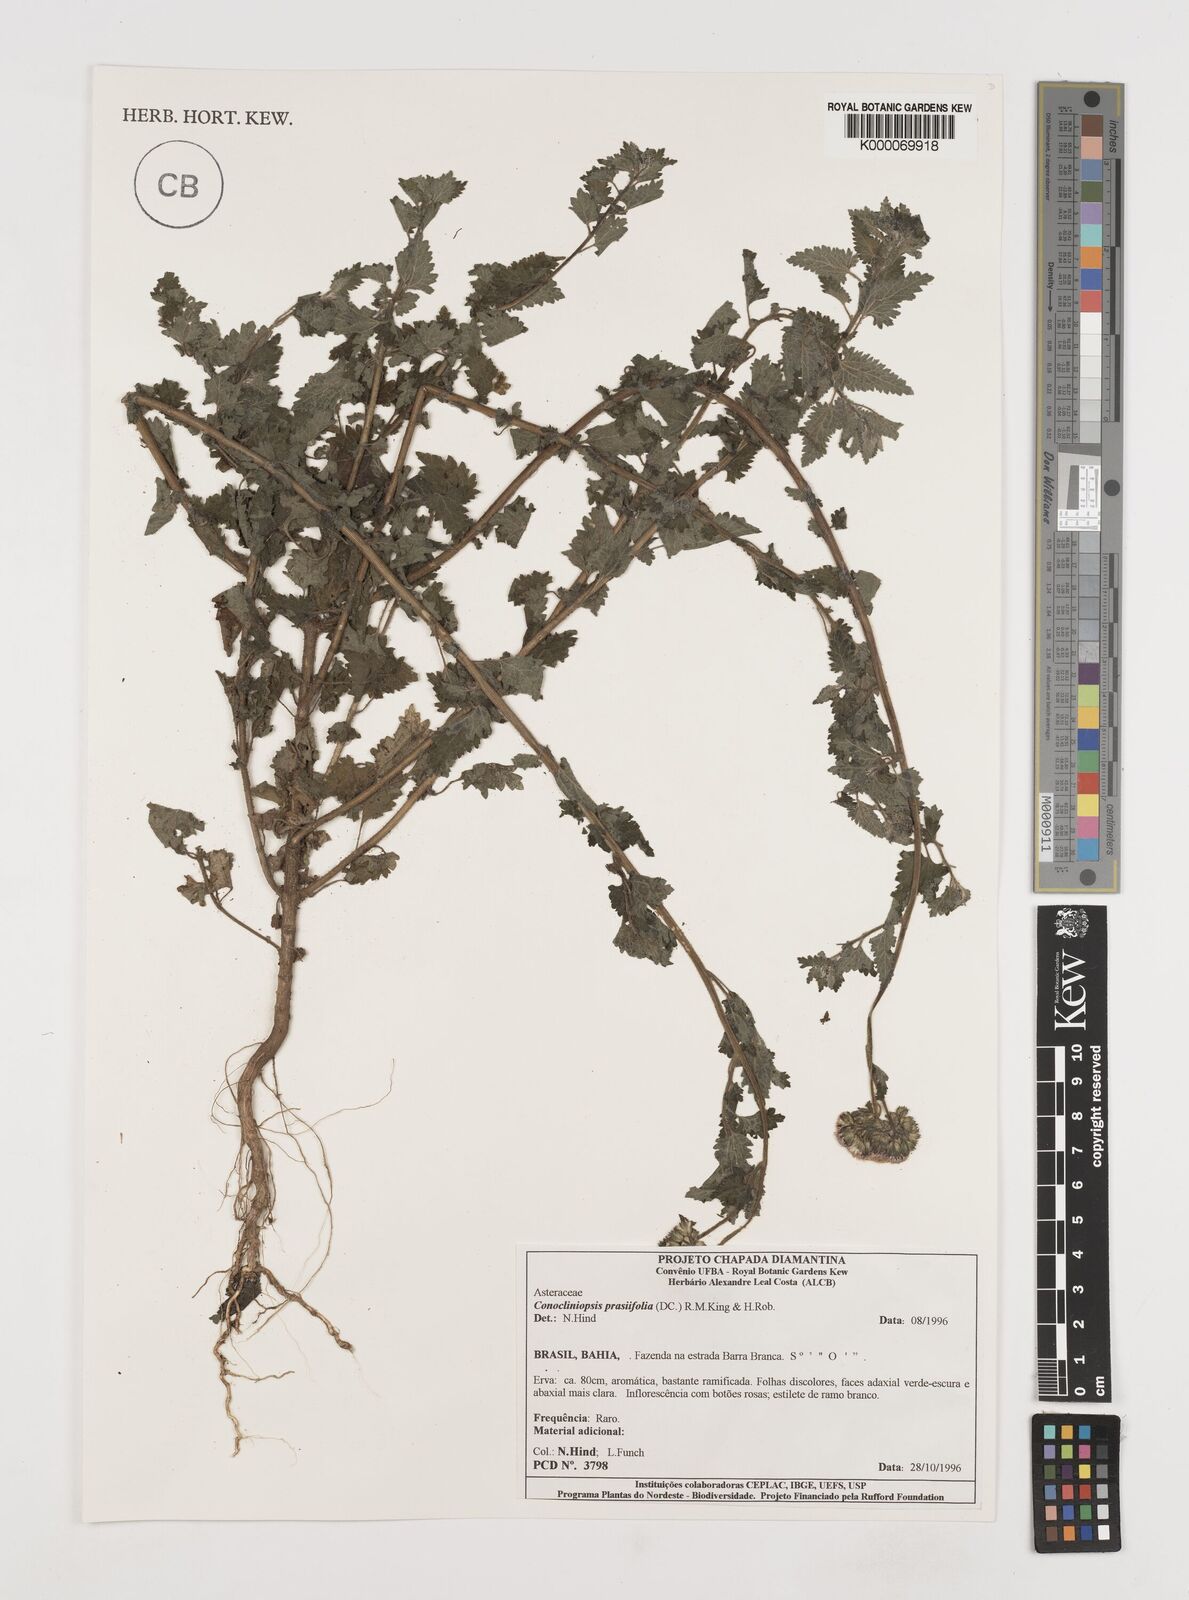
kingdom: Plantae
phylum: Tracheophyta
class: Magnoliopsida
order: Asterales
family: Asteraceae
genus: Conocliniopsis
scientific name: Conocliniopsis grossedentata
